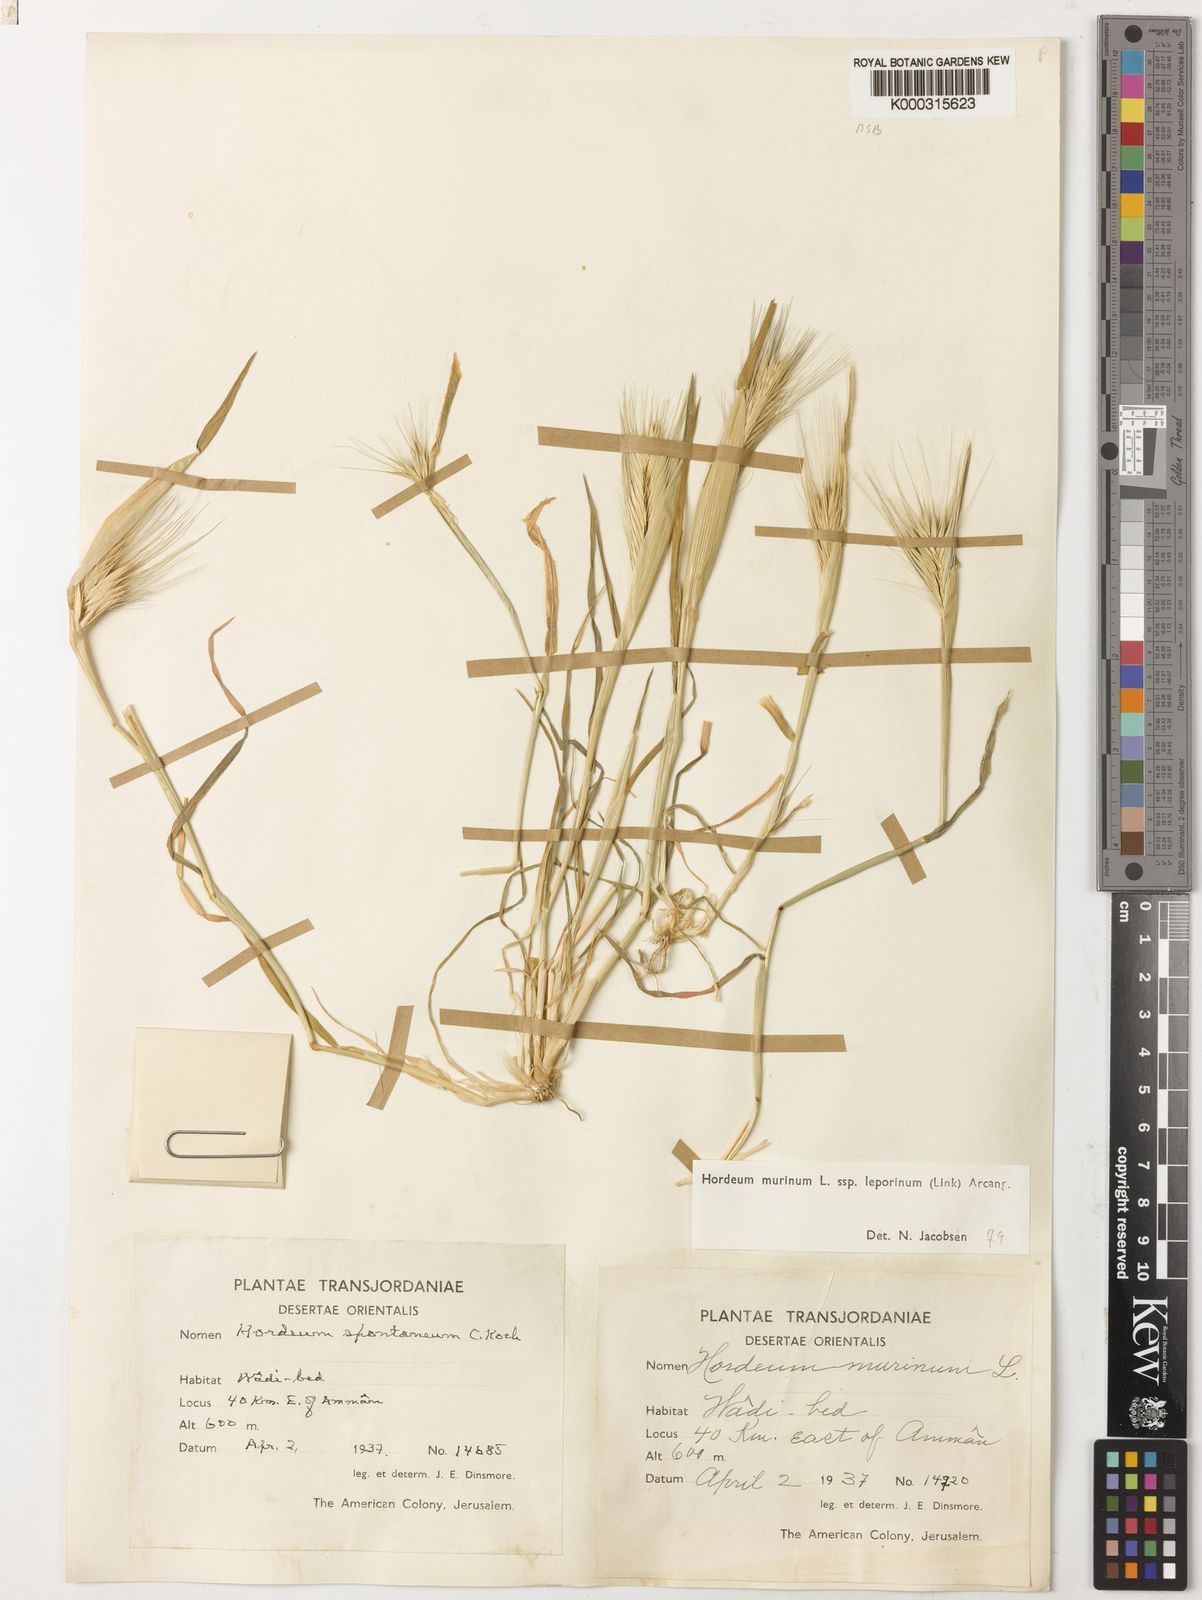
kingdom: Plantae
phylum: Tracheophyta
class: Liliopsida
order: Poales
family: Poaceae
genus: Hordeum
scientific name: Hordeum murinum
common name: Wall barley
